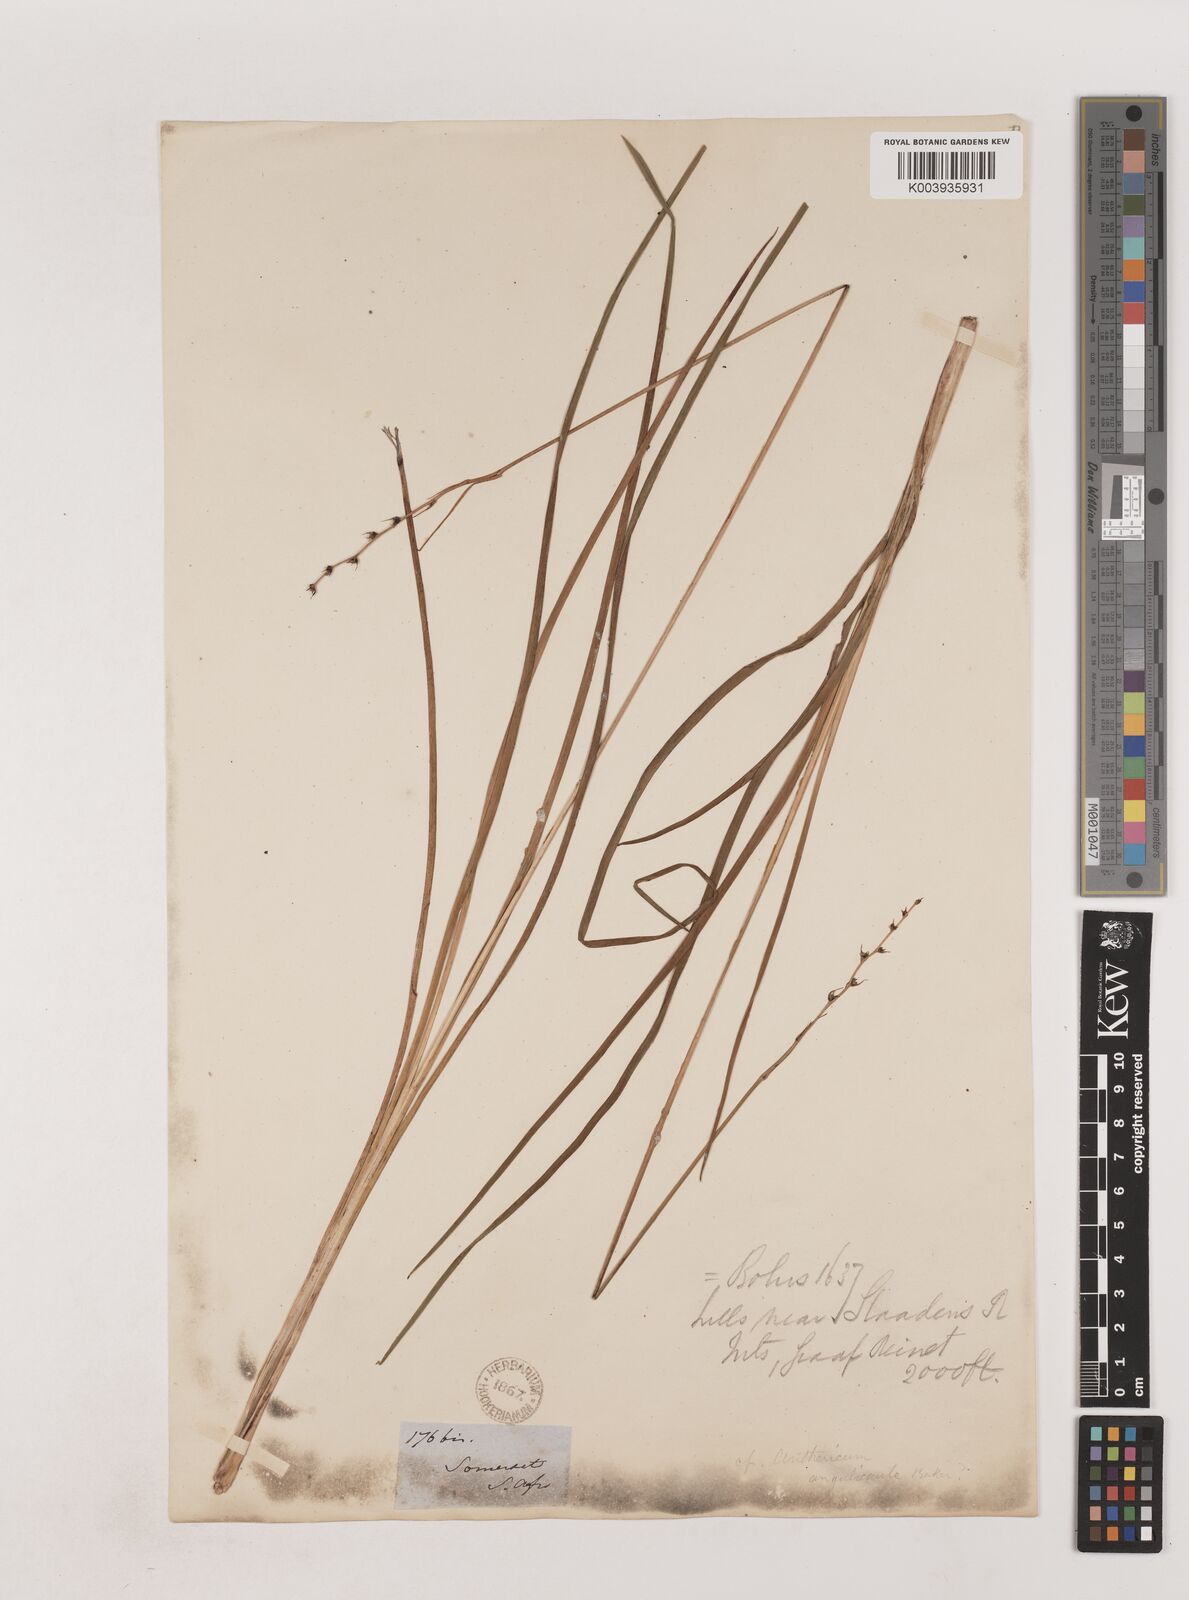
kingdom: Plantae
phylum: Tracheophyta
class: Liliopsida
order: Asparagales
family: Asparagaceae
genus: Chlorophytum
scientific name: Chlorophytum angulicaule
